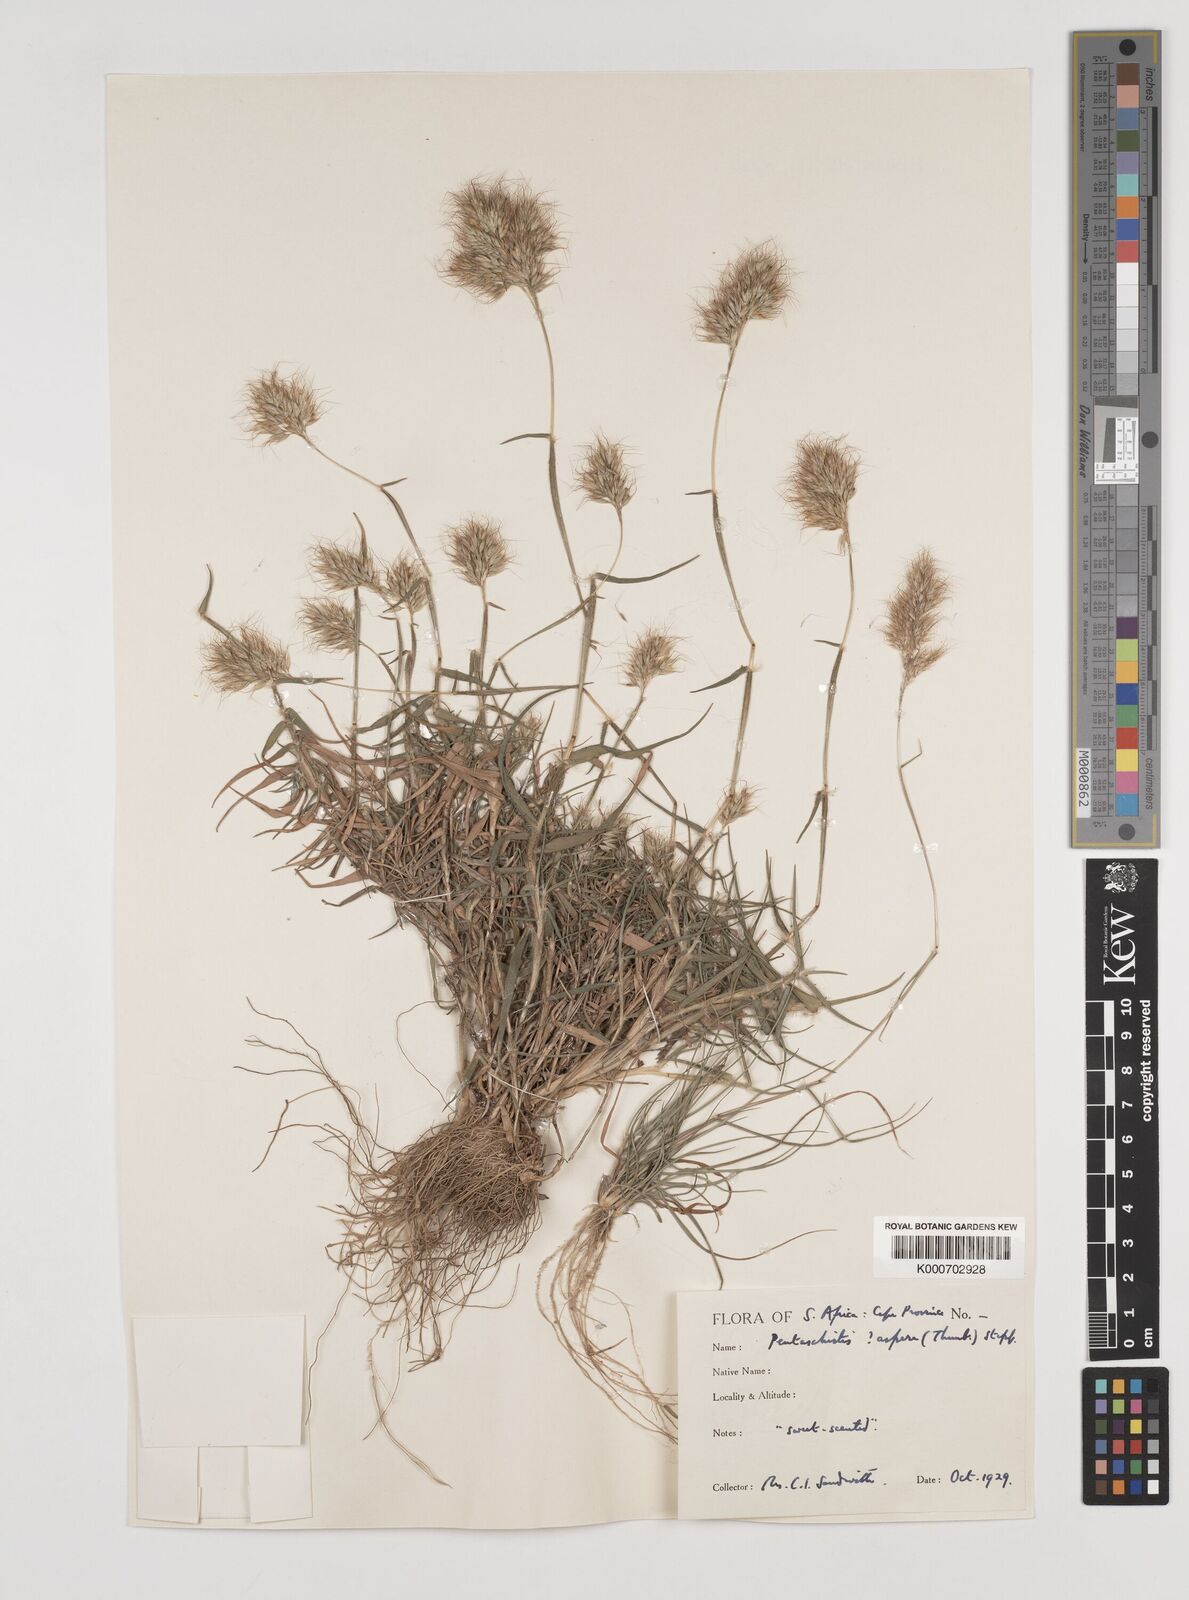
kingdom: Plantae
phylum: Tracheophyta
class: Liliopsida
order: Poales
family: Poaceae
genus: Pentameris
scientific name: Pentameris aspera
